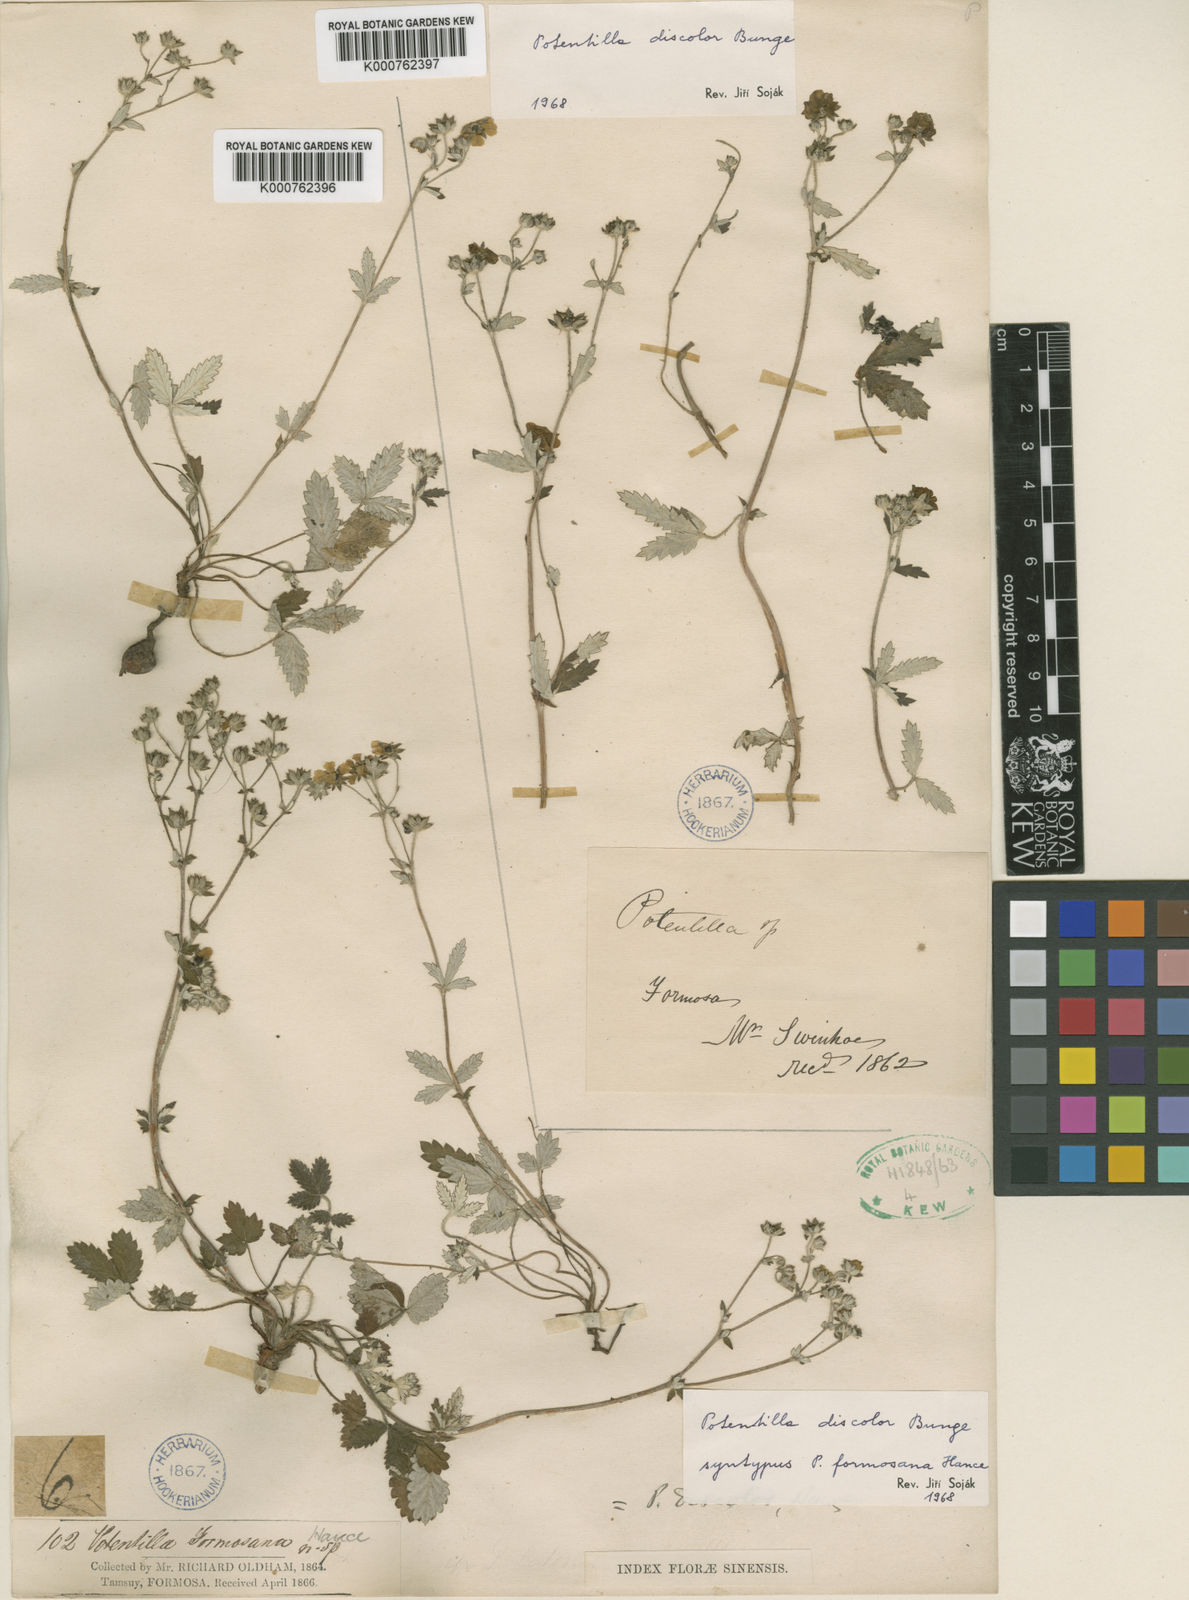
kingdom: Plantae
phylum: Tracheophyta
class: Magnoliopsida
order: Rosales
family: Rosaceae
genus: Potentilla
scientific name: Potentilla discolor
